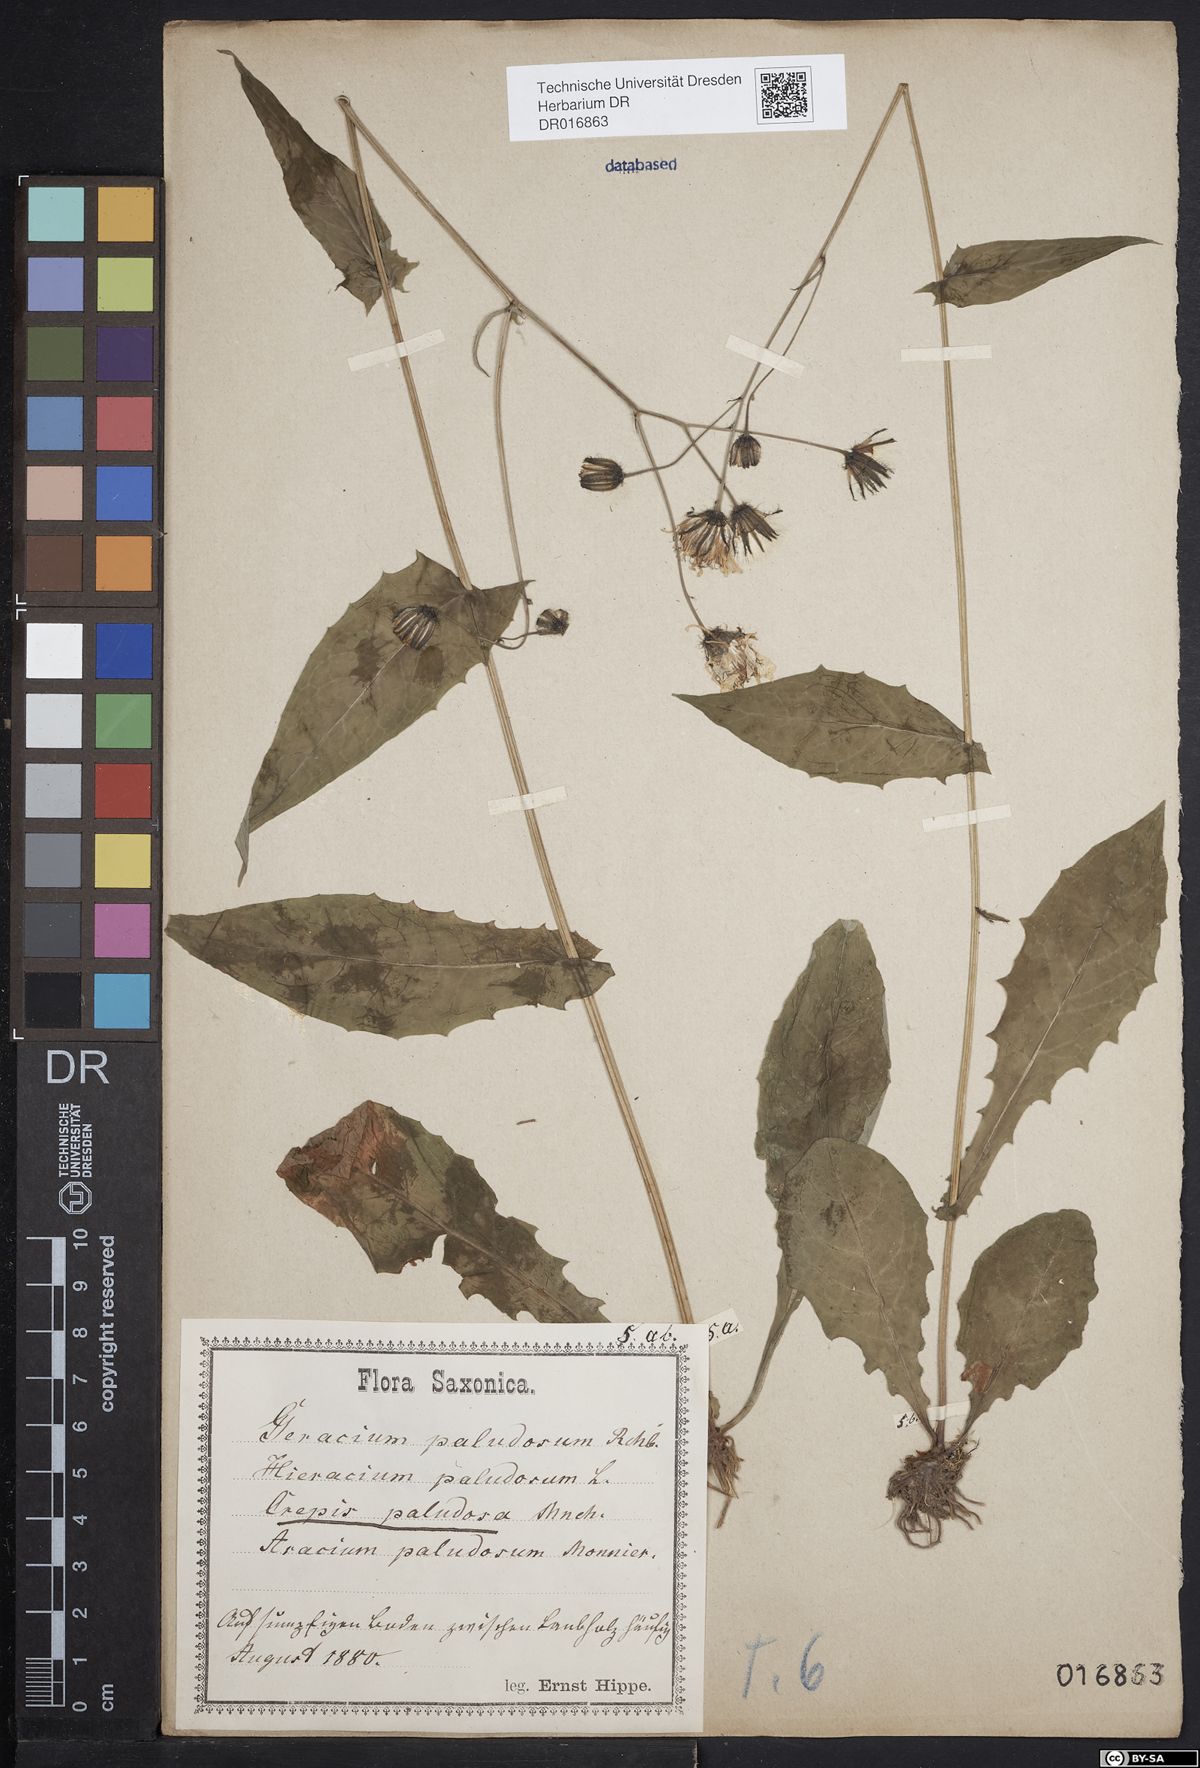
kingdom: Plantae
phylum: Tracheophyta
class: Magnoliopsida
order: Asterales
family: Asteraceae
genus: Crepis
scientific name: Crepis paludosa
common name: Marsh hawk's-beard
